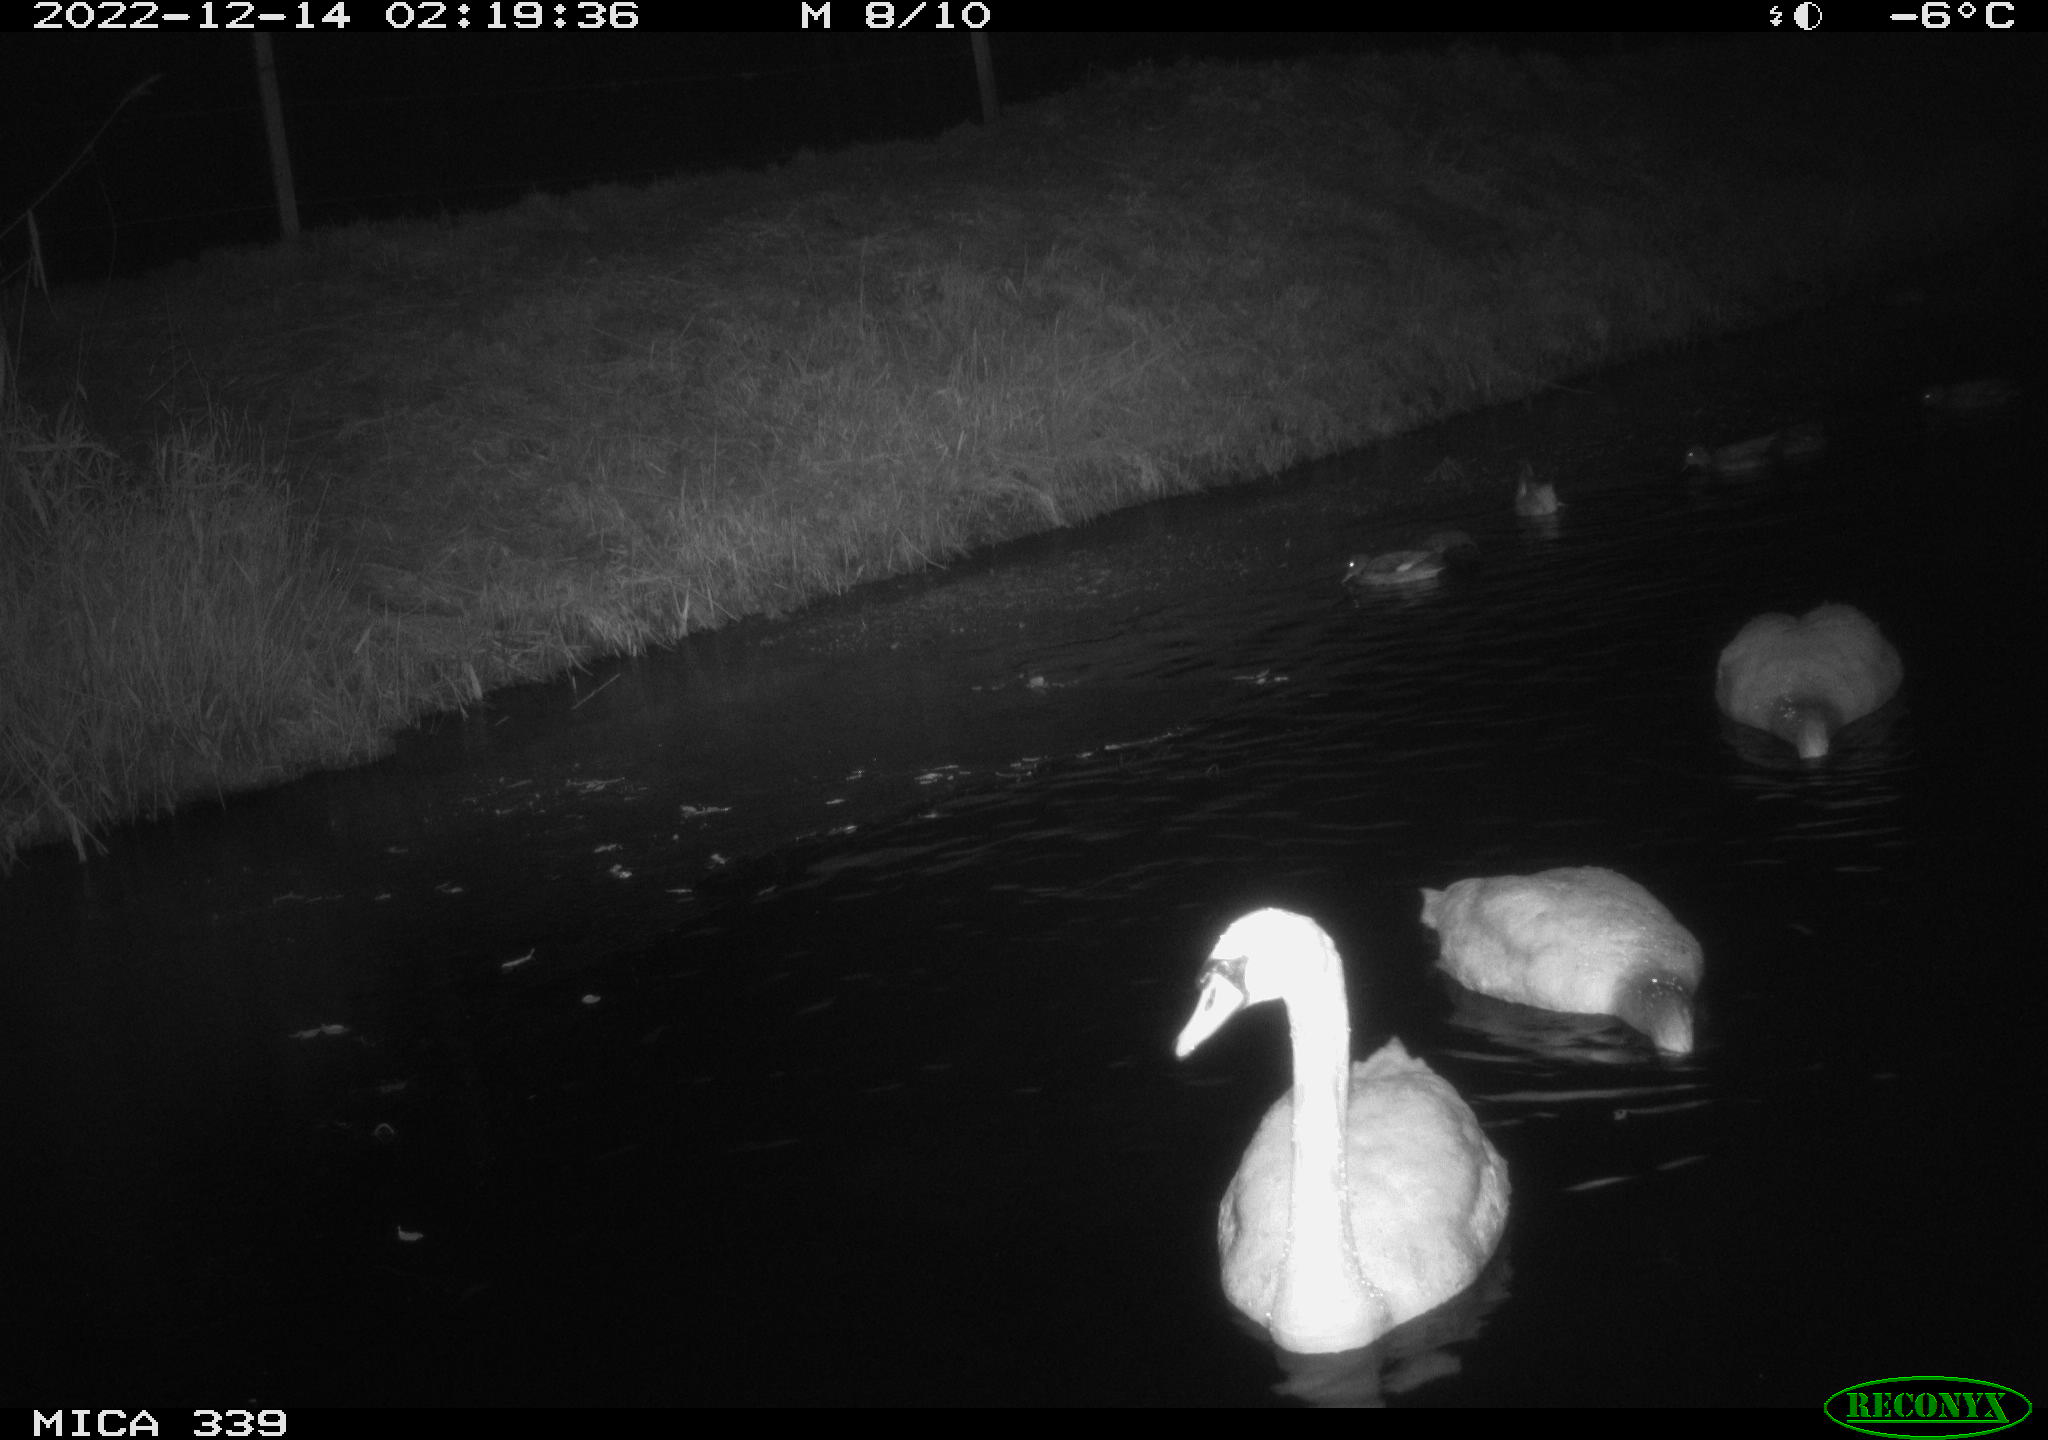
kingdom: Animalia
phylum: Chordata
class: Aves
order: Anseriformes
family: Anatidae
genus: Cygnus
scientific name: Cygnus olor
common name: Mute swan
